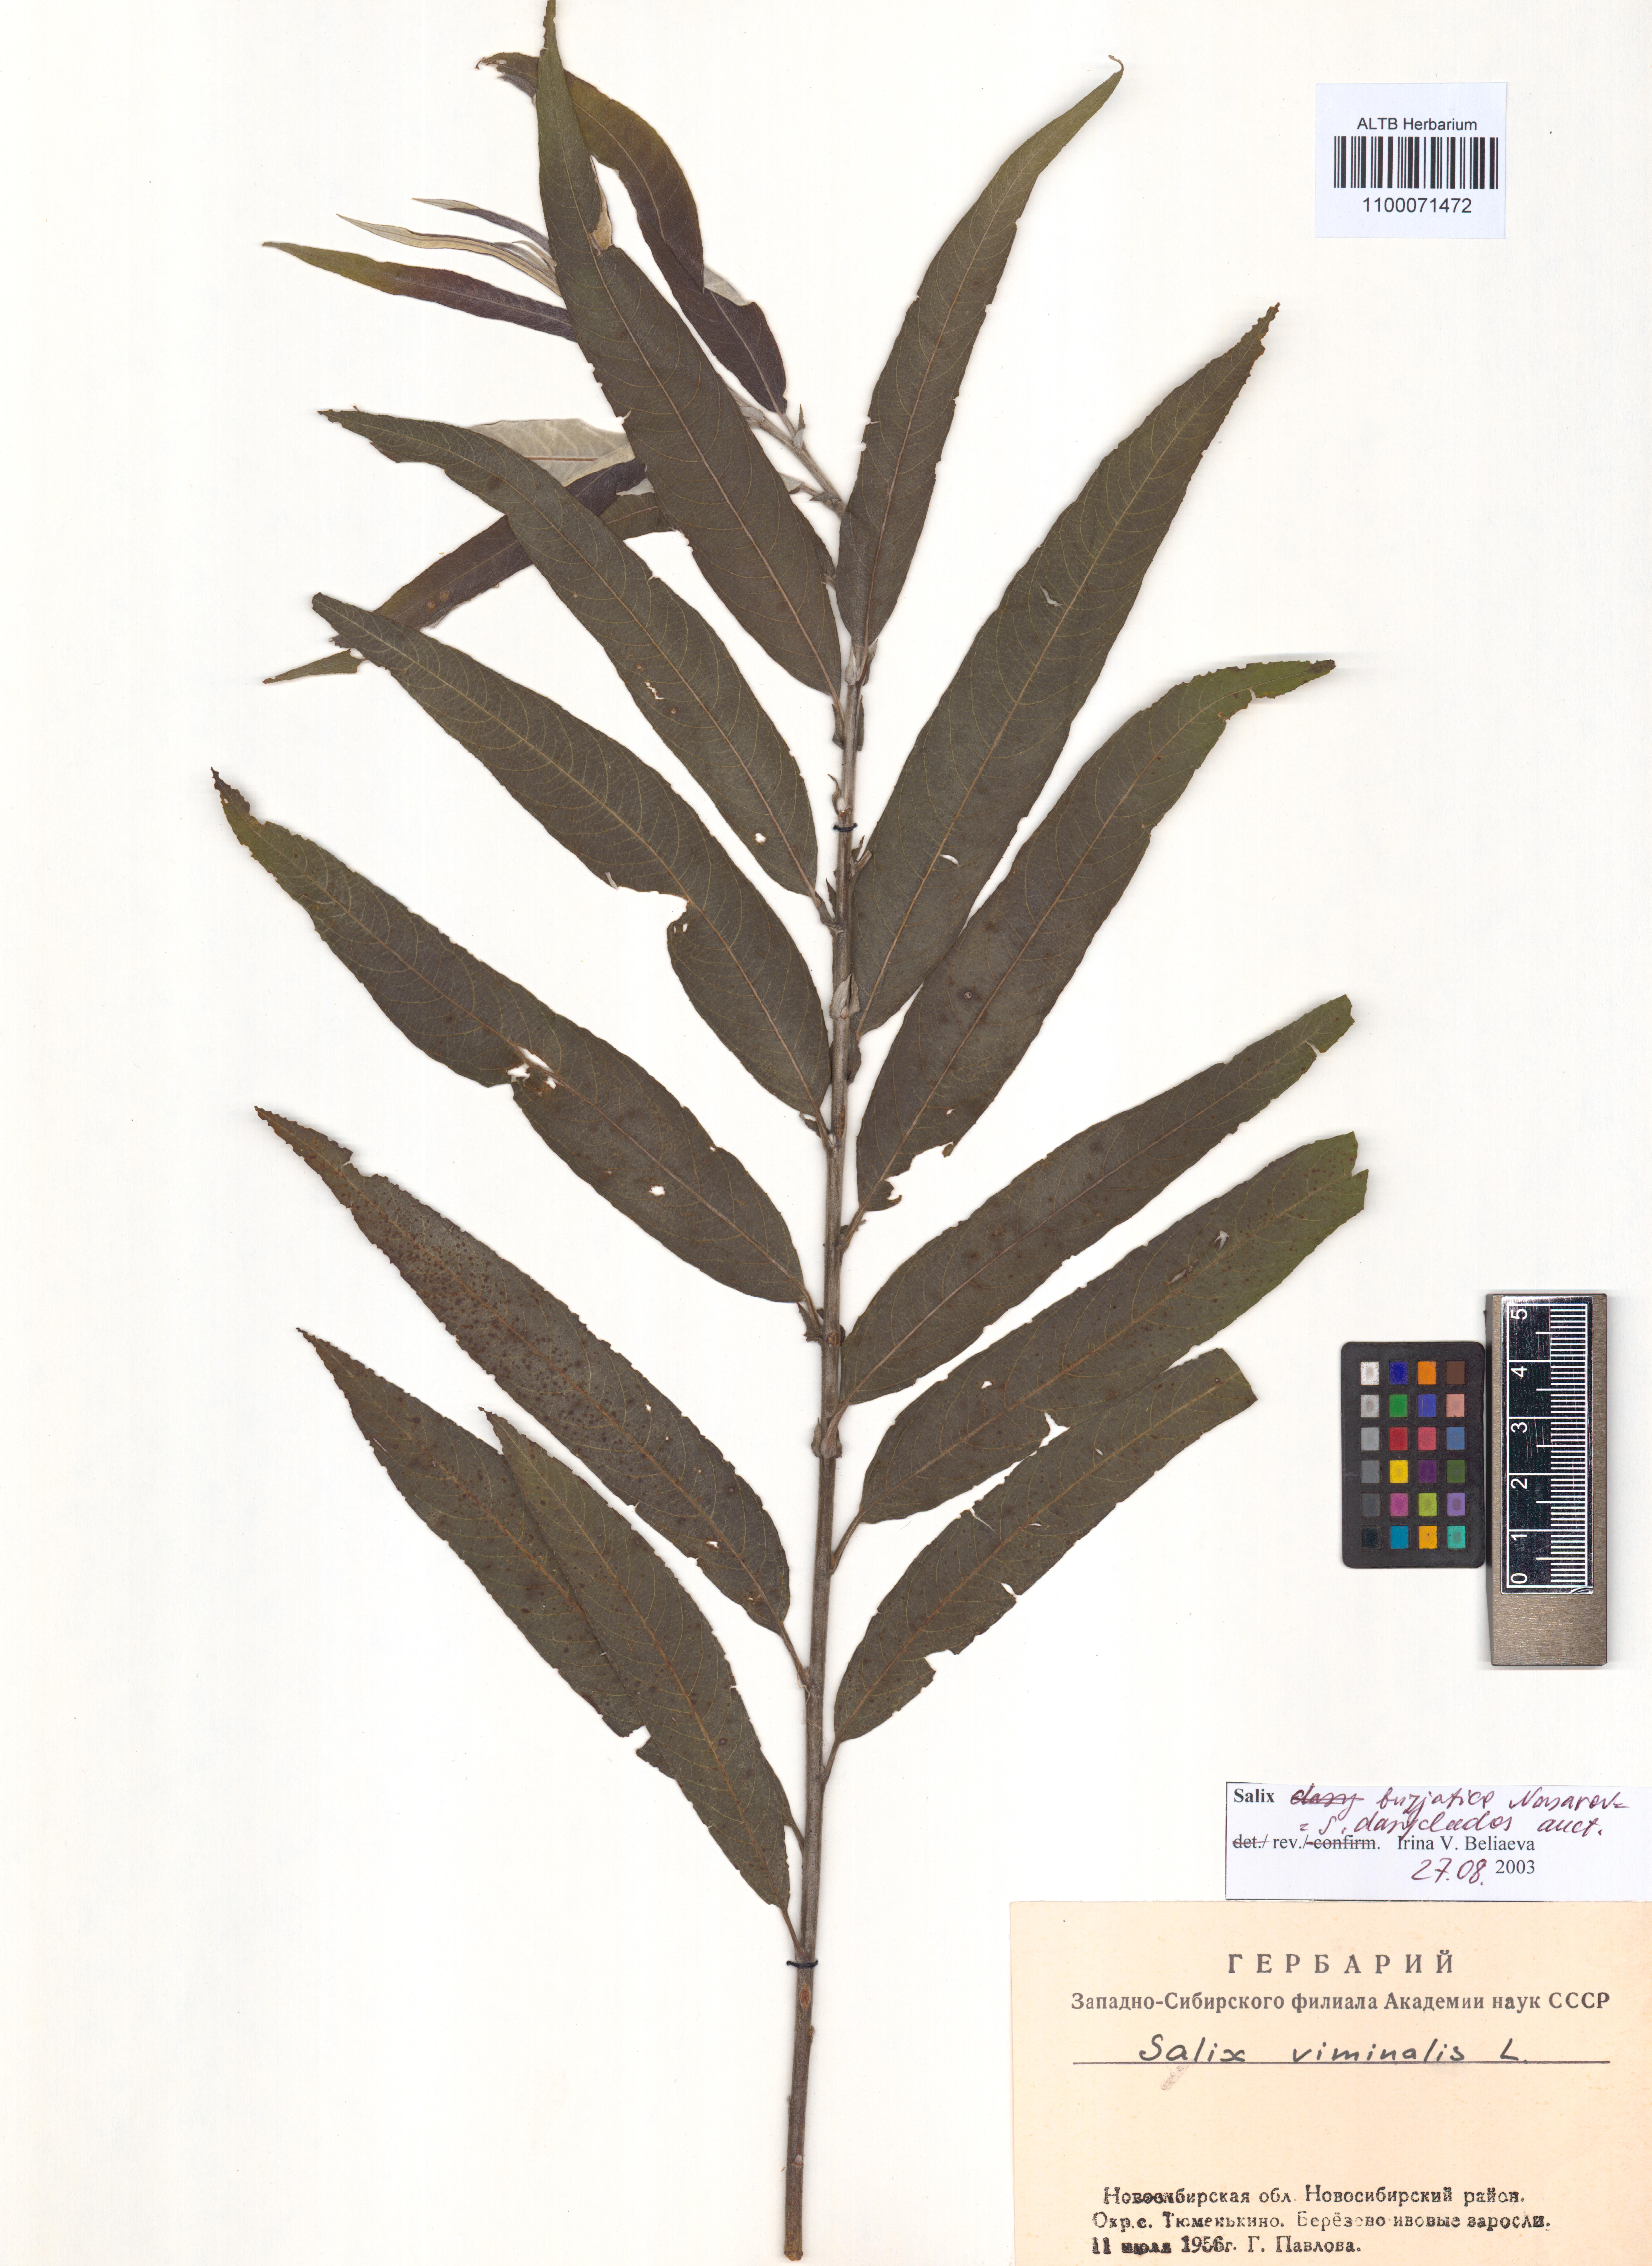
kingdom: Plantae
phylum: Tracheophyta
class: Magnoliopsida
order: Malpighiales
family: Salicaceae
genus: Salix
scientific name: Salix gmelinii
